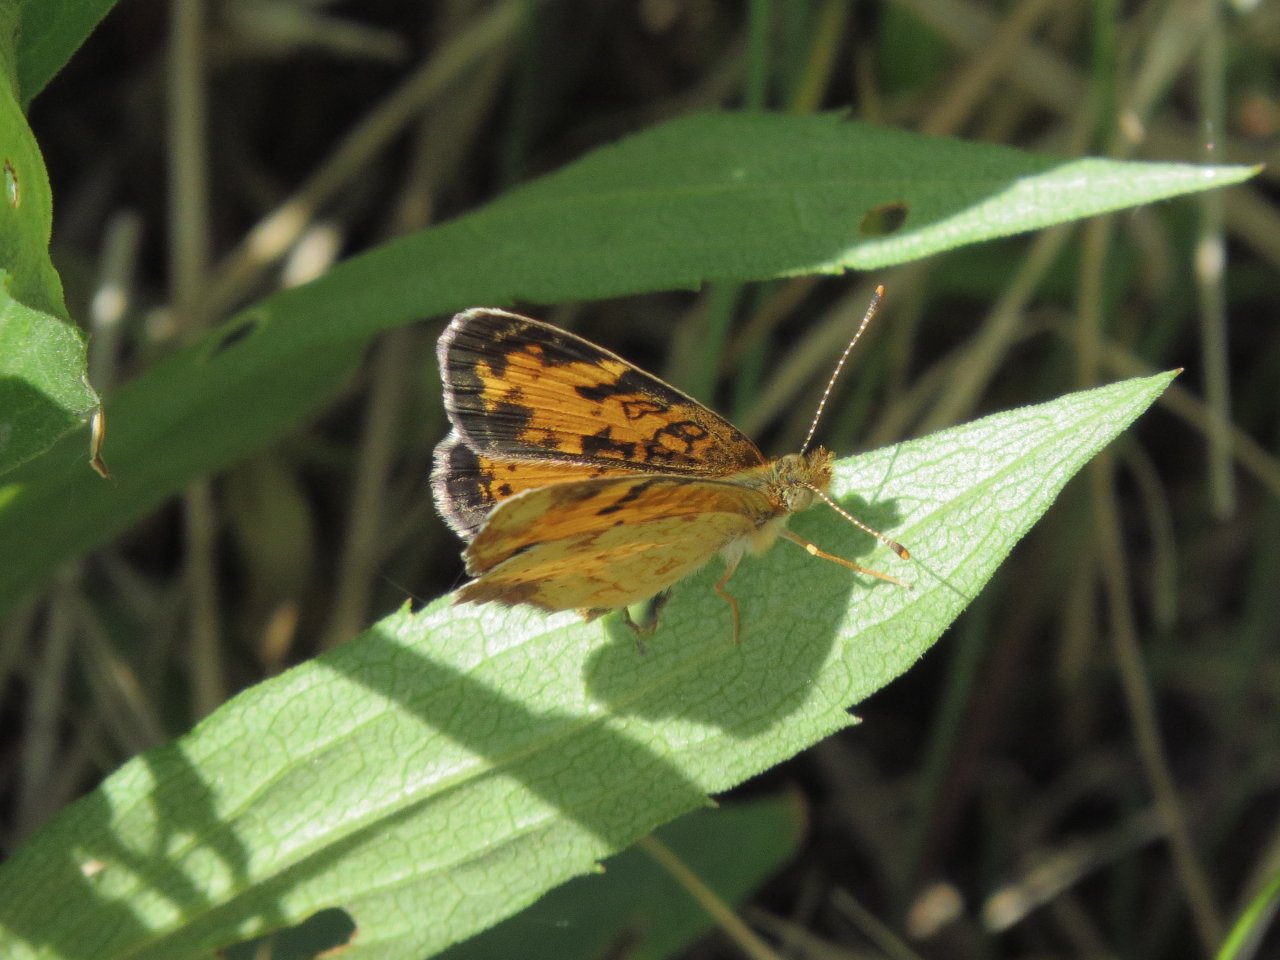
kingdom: Animalia
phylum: Arthropoda
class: Insecta
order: Lepidoptera
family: Nymphalidae
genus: Phyciodes
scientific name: Phyciodes tharos
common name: Northern Crescent
